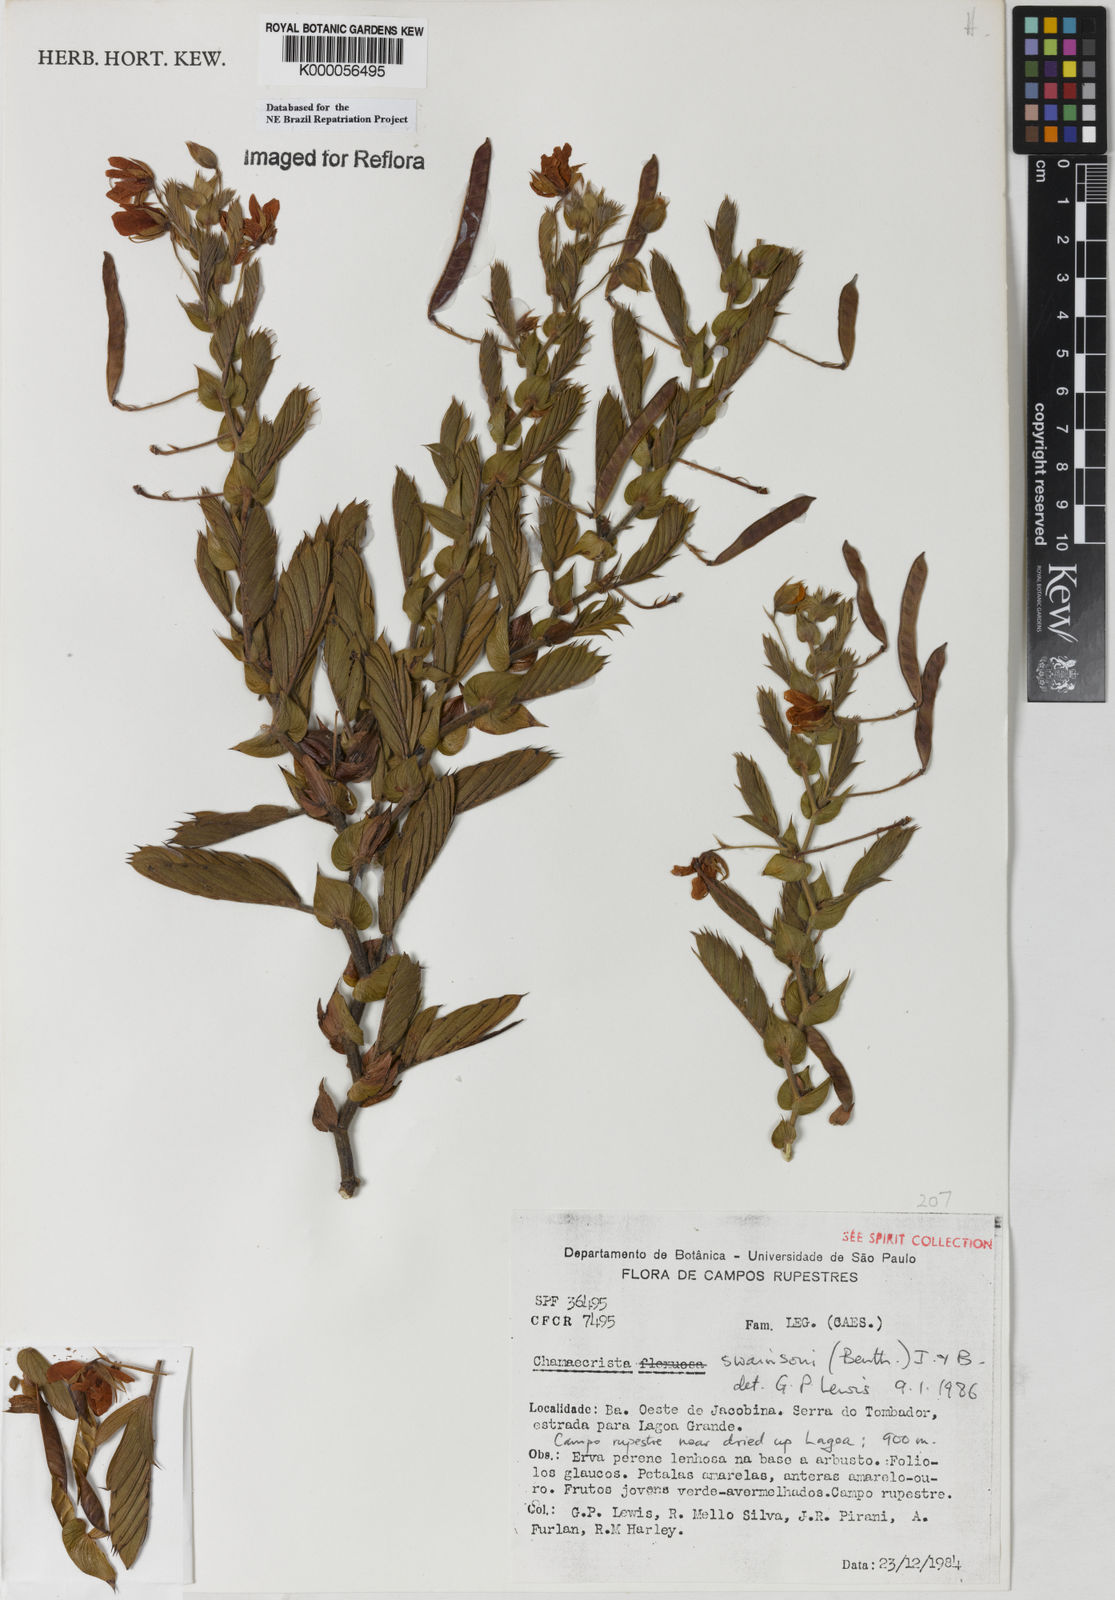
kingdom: Plantae
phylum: Tracheophyta
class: Magnoliopsida
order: Fabales
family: Fabaceae
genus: Chamaecrista
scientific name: Chamaecrista swainsonii
